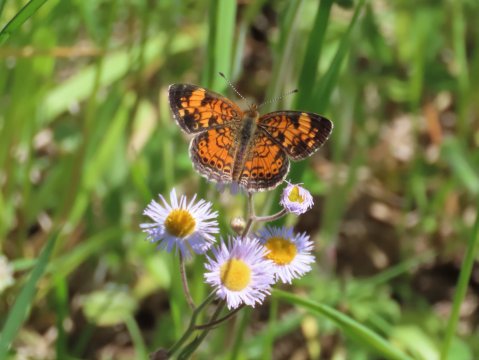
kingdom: Animalia
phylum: Arthropoda
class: Insecta
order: Lepidoptera
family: Nymphalidae
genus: Phyciodes
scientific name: Phyciodes tharos
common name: Pearl Crescent
